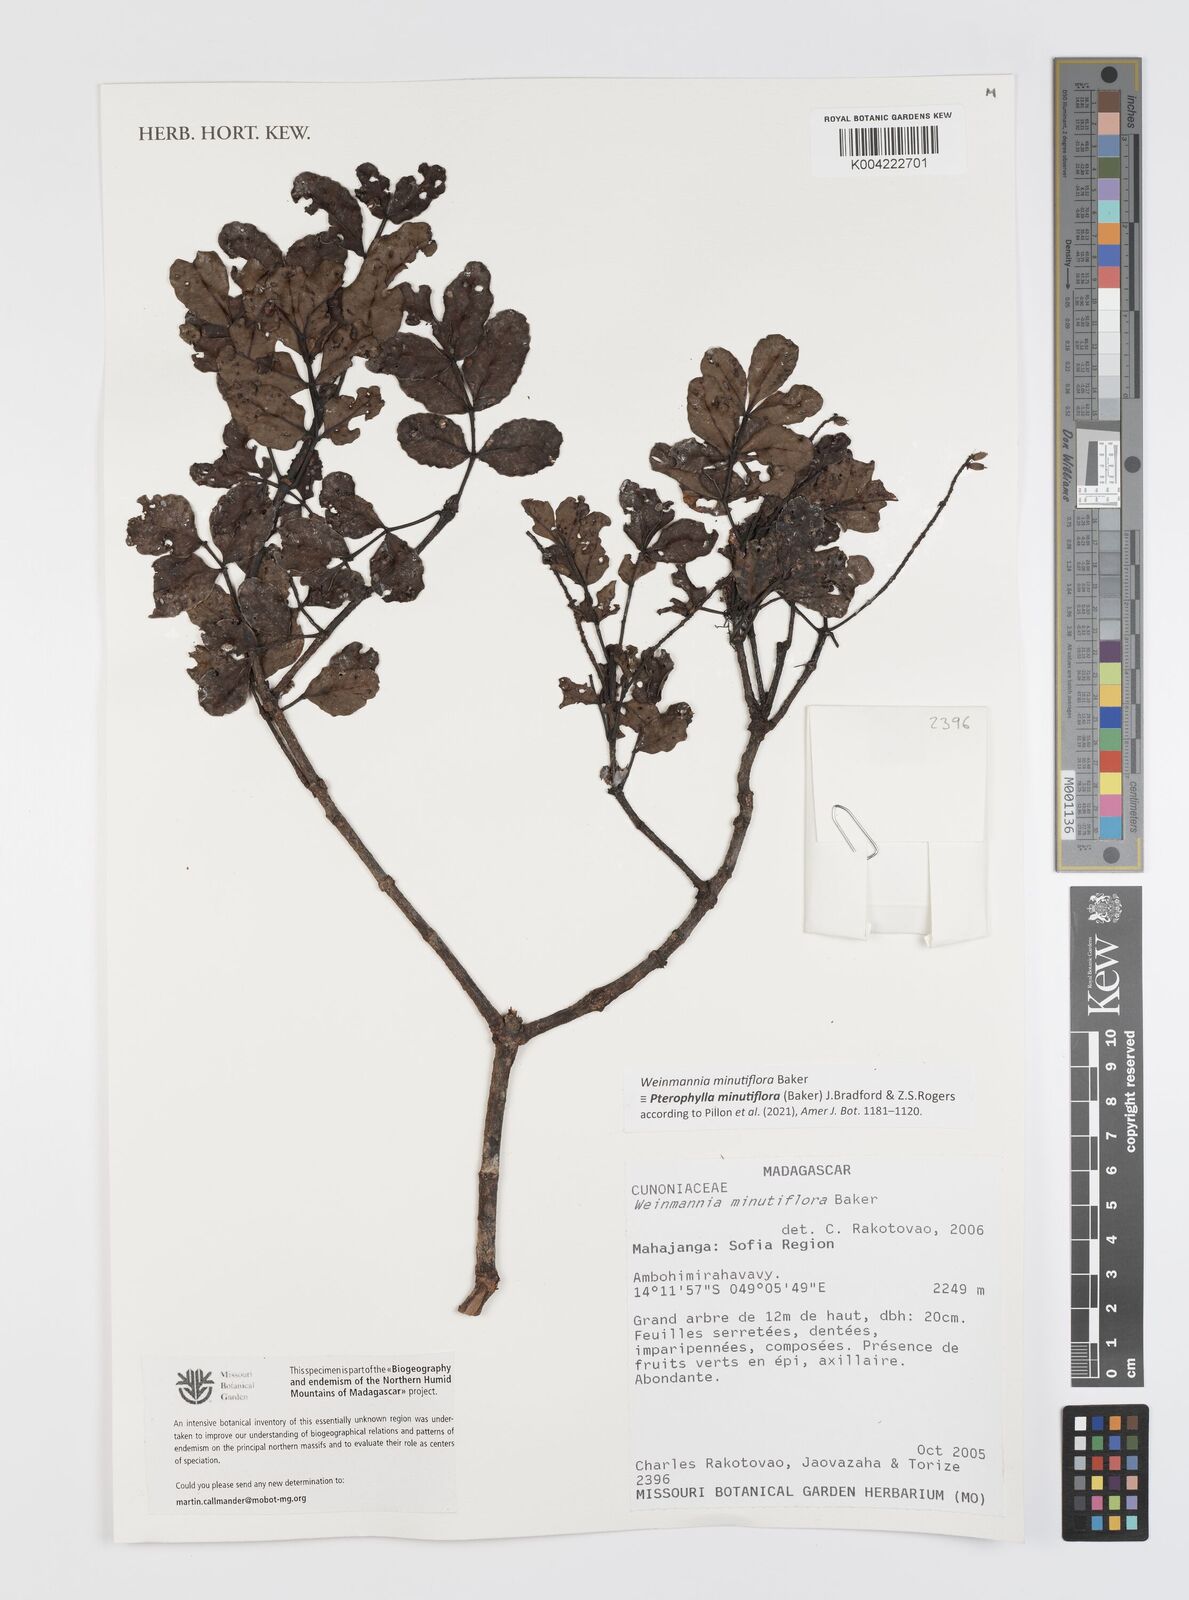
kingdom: Plantae
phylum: Tracheophyta
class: Magnoliopsida
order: Oxalidales
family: Cunoniaceae
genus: Pterophylla
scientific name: Pterophylla
